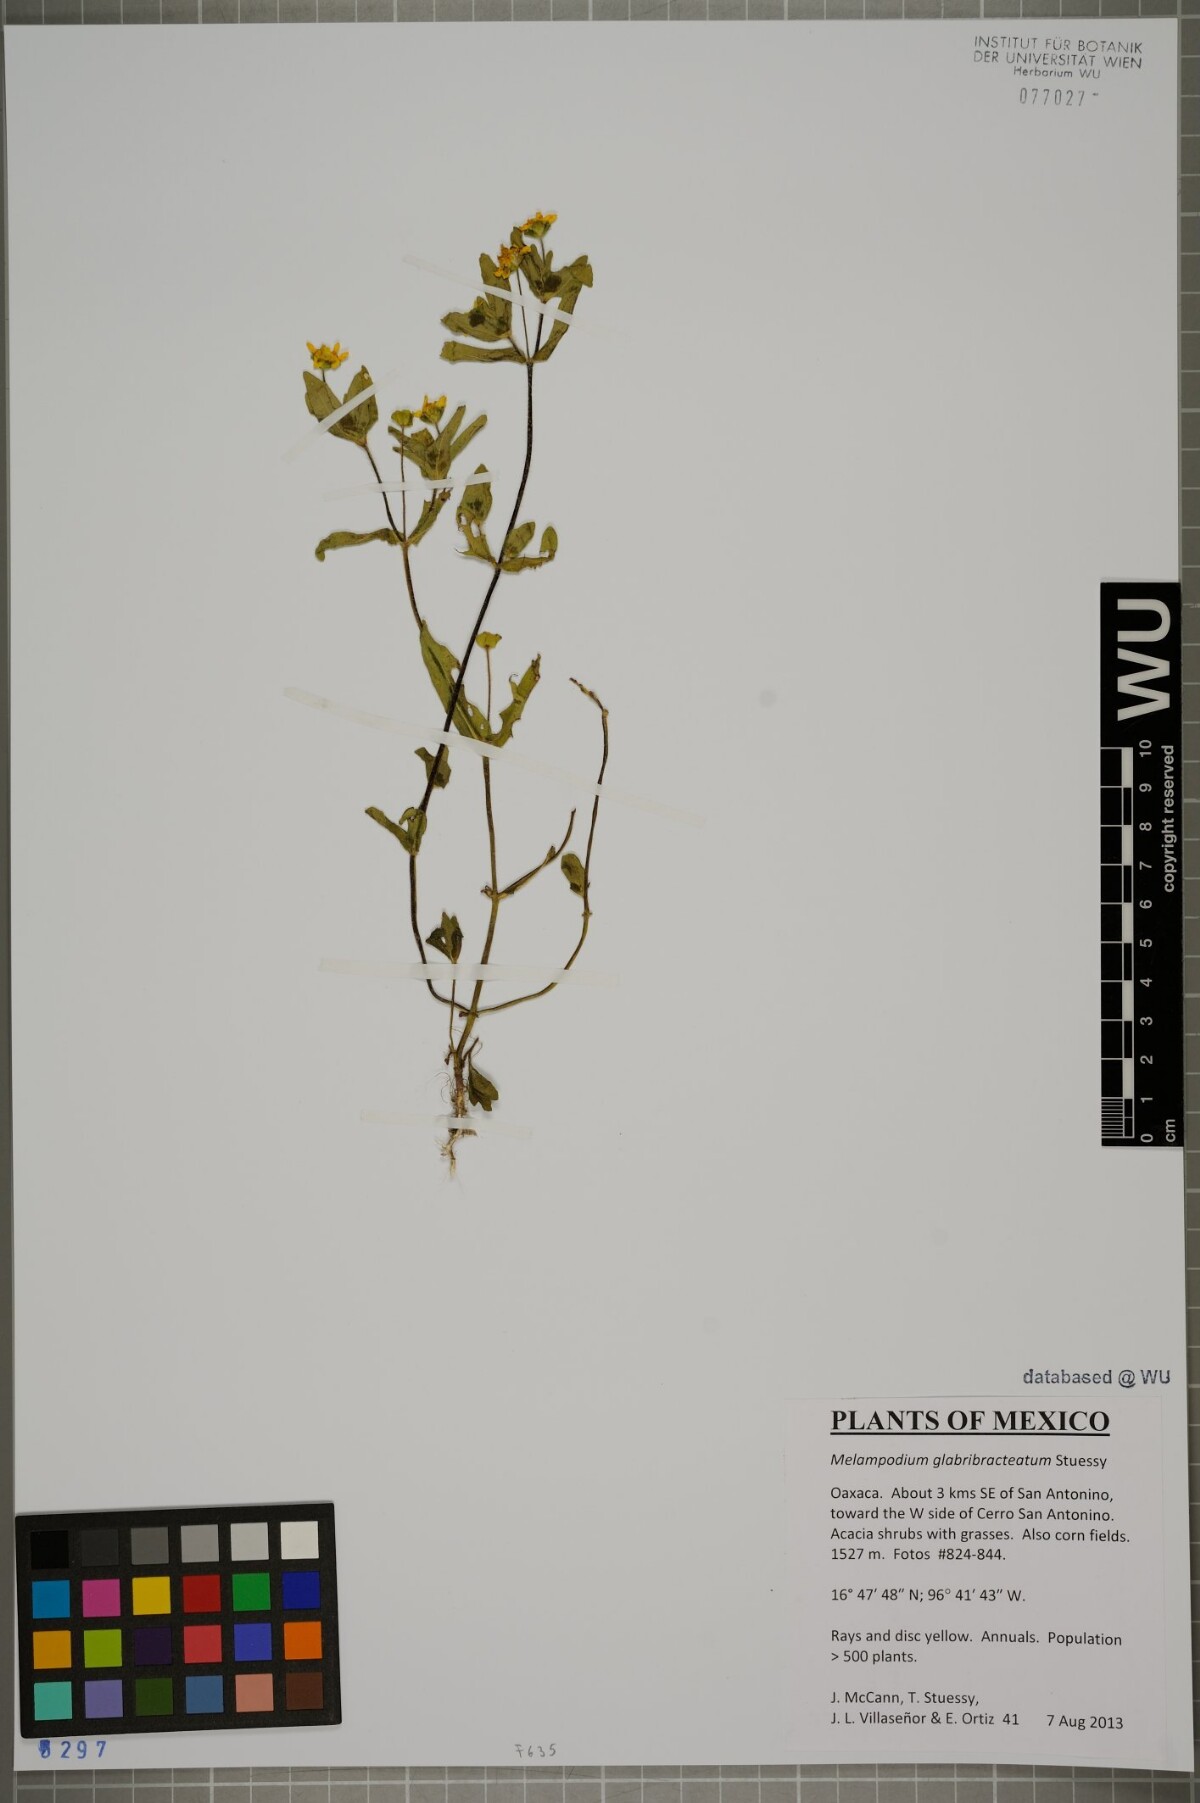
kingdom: Plantae
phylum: Tracheophyta
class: Magnoliopsida
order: Asterales
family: Asteraceae
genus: Melampodium
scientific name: Melampodium glabribracteatum
